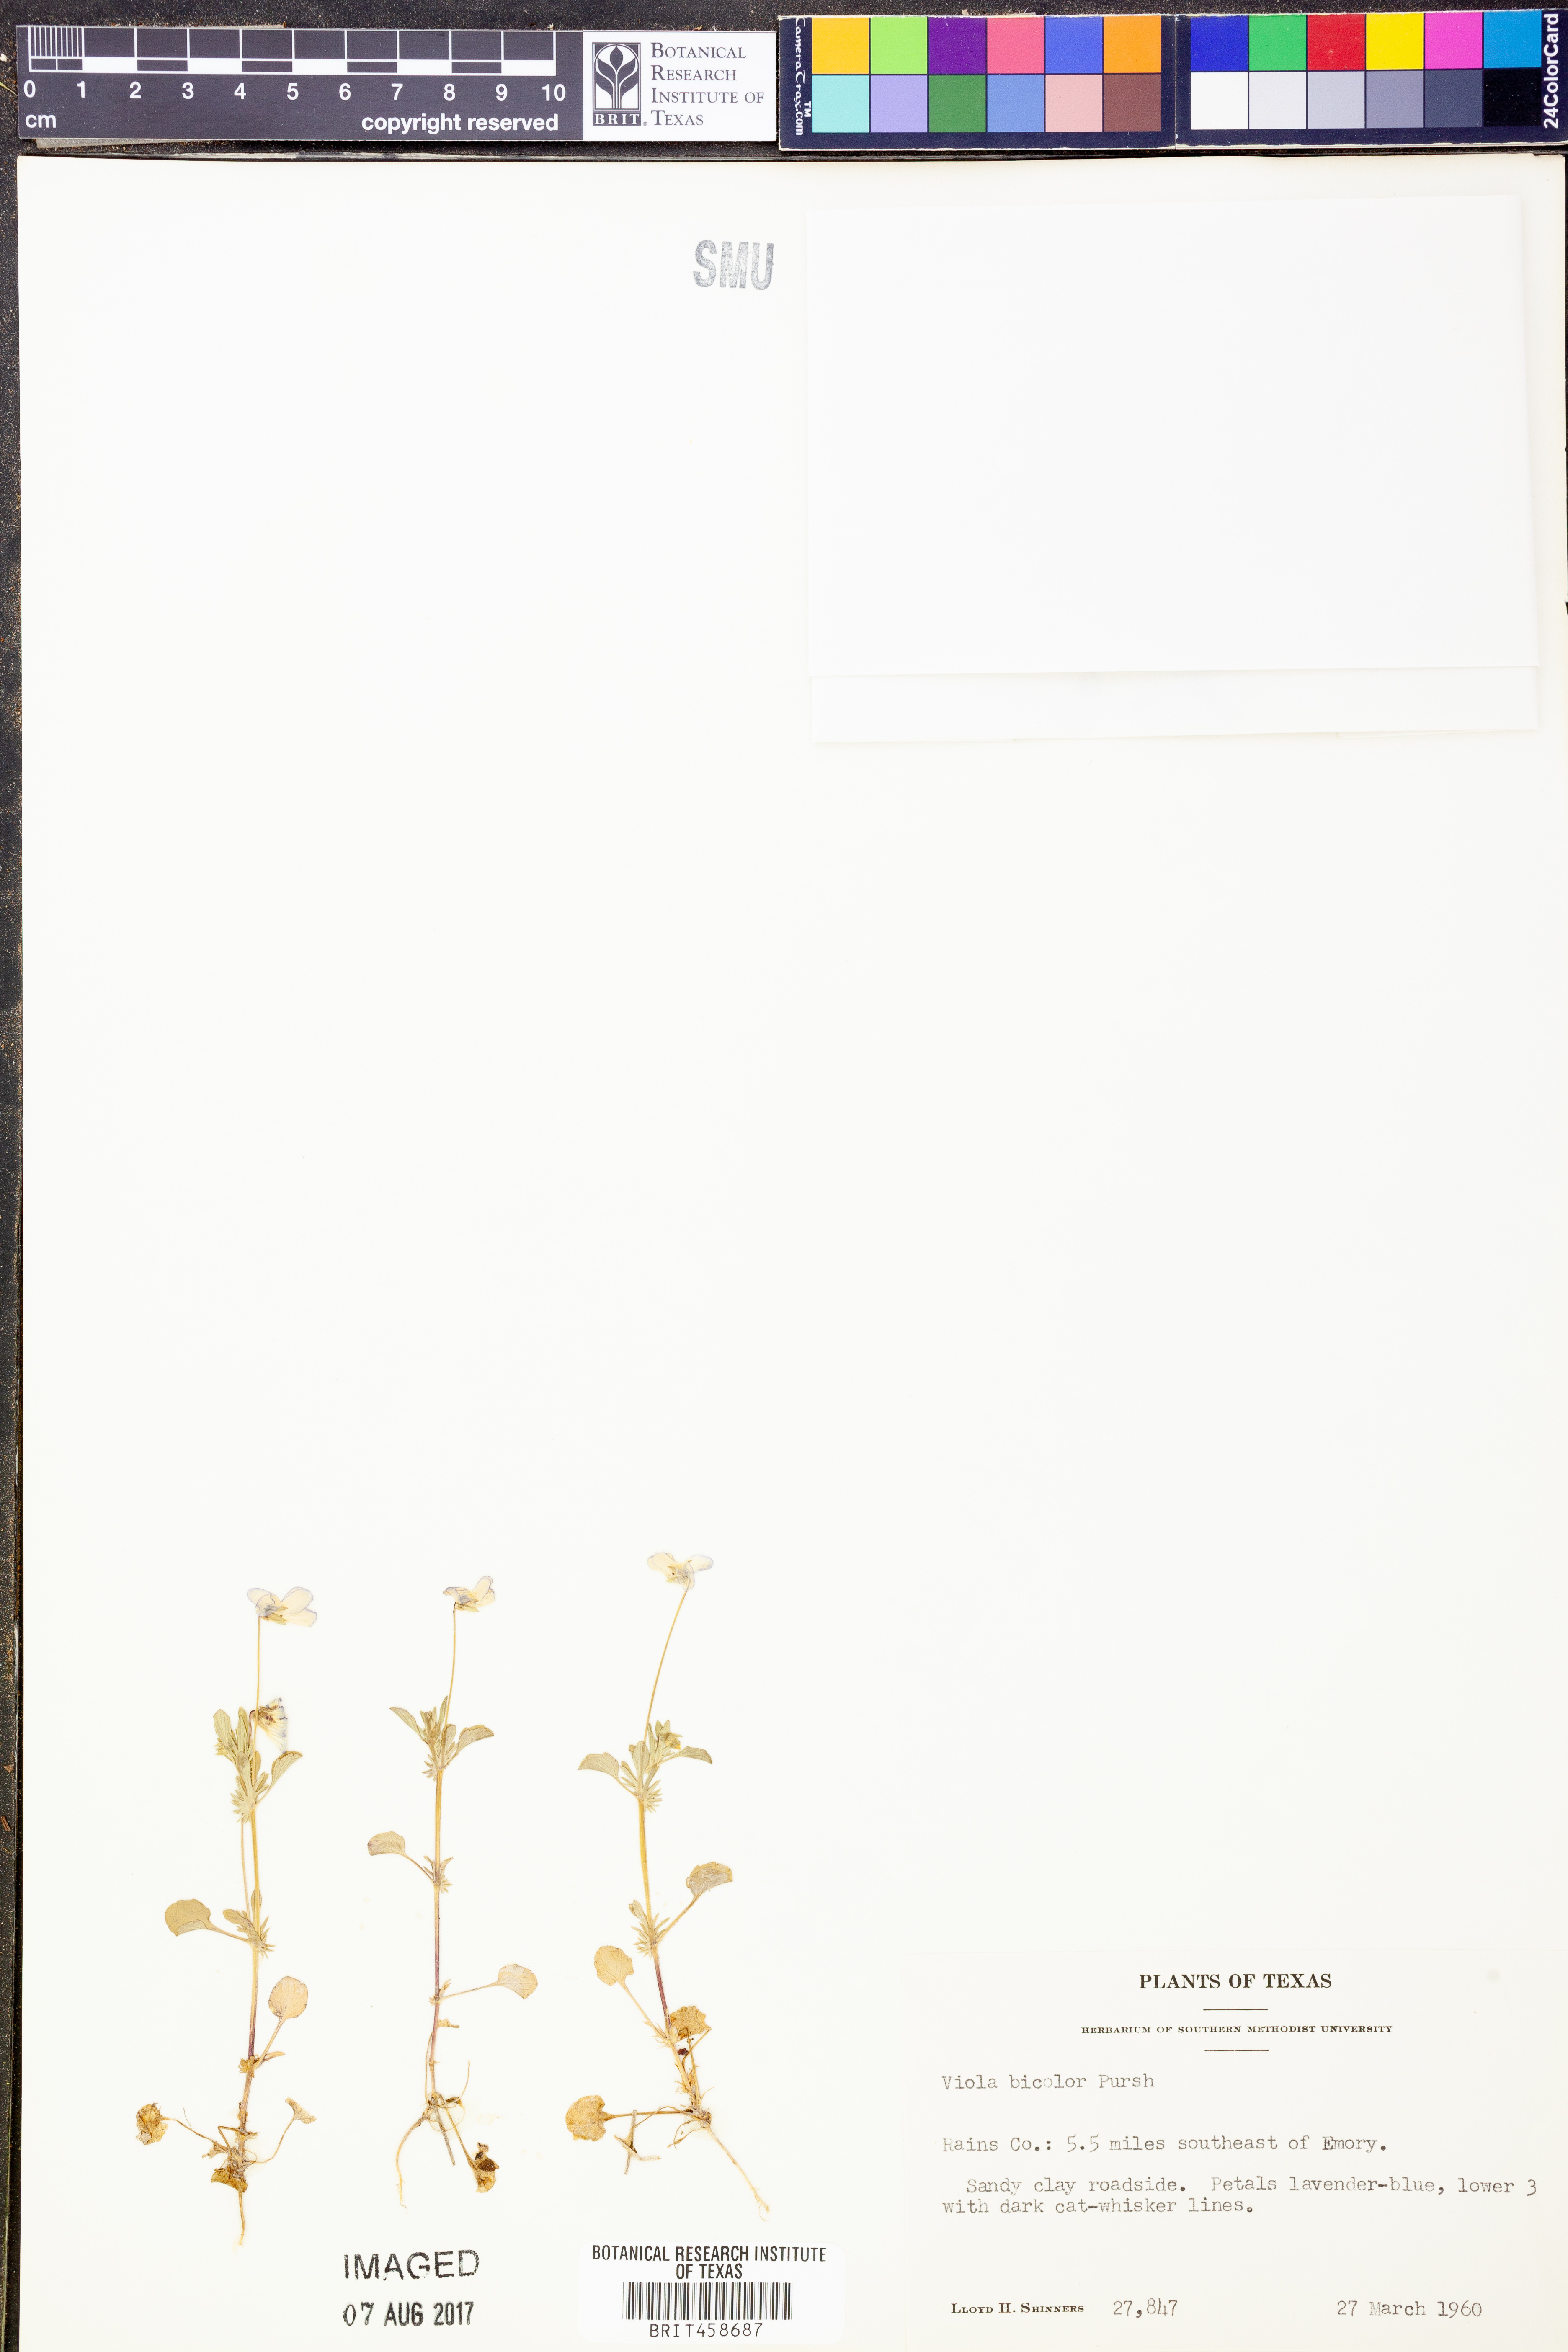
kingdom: Plantae
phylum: Tracheophyta
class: Magnoliopsida
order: Malpighiales
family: Violaceae
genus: Viola
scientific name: Viola rafinesquei
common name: American field pansy
